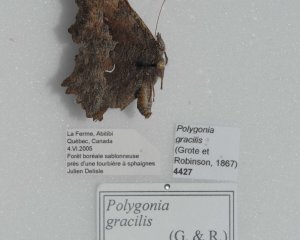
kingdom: Animalia
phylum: Arthropoda
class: Insecta
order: Lepidoptera
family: Nymphalidae
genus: Polygonia
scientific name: Polygonia gracilis
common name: Hoary Comma
